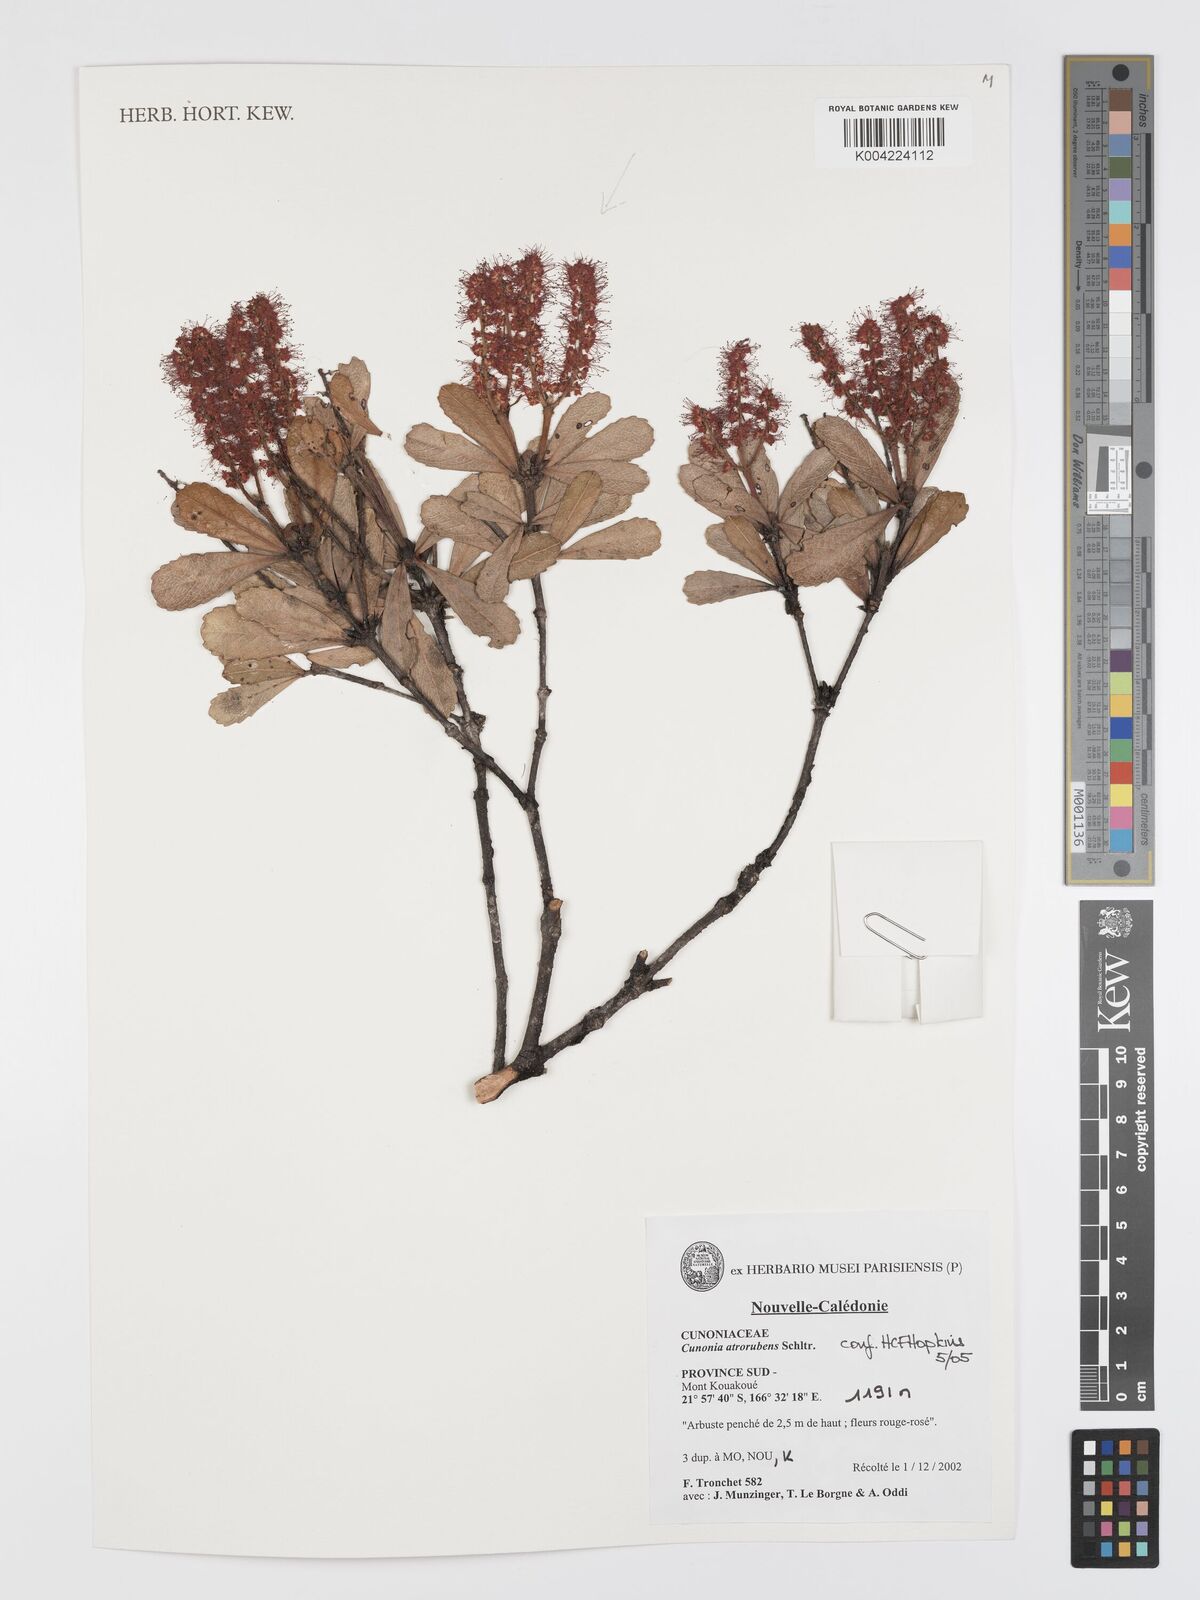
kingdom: Plantae
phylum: Tracheophyta
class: Magnoliopsida
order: Oxalidales
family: Cunoniaceae
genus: Cunonia
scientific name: Cunonia atrorubens
